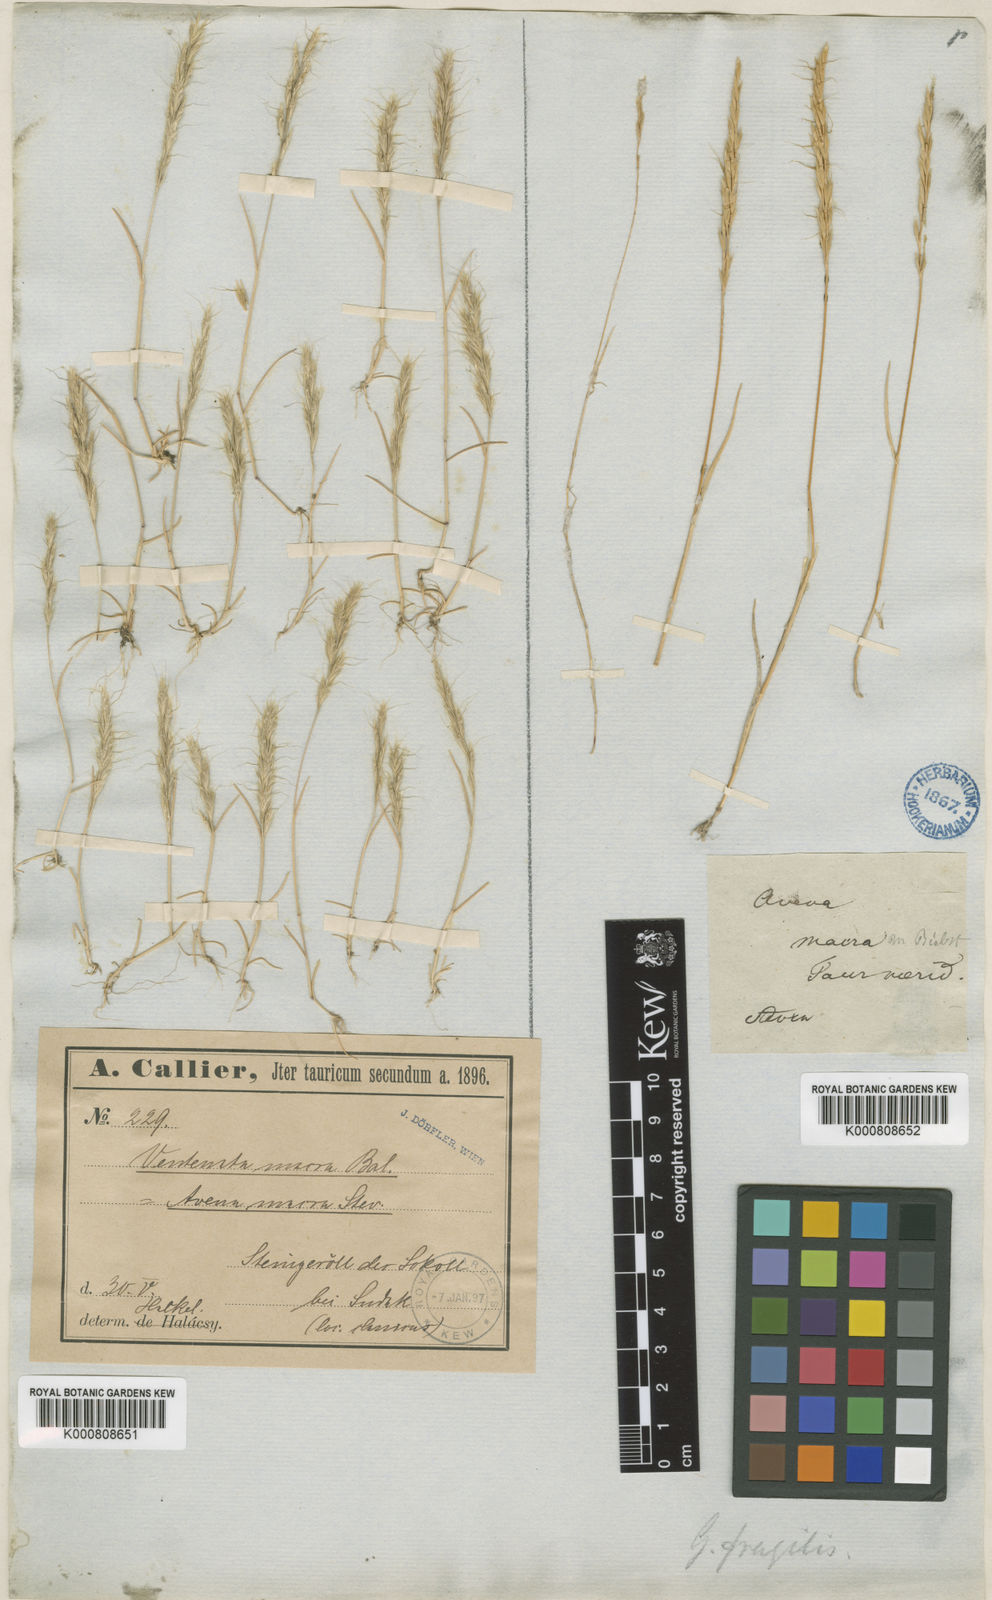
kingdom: Plantae
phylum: Tracheophyta
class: Liliopsida
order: Poales
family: Poaceae
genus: Ventenata
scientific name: Ventenata macra
